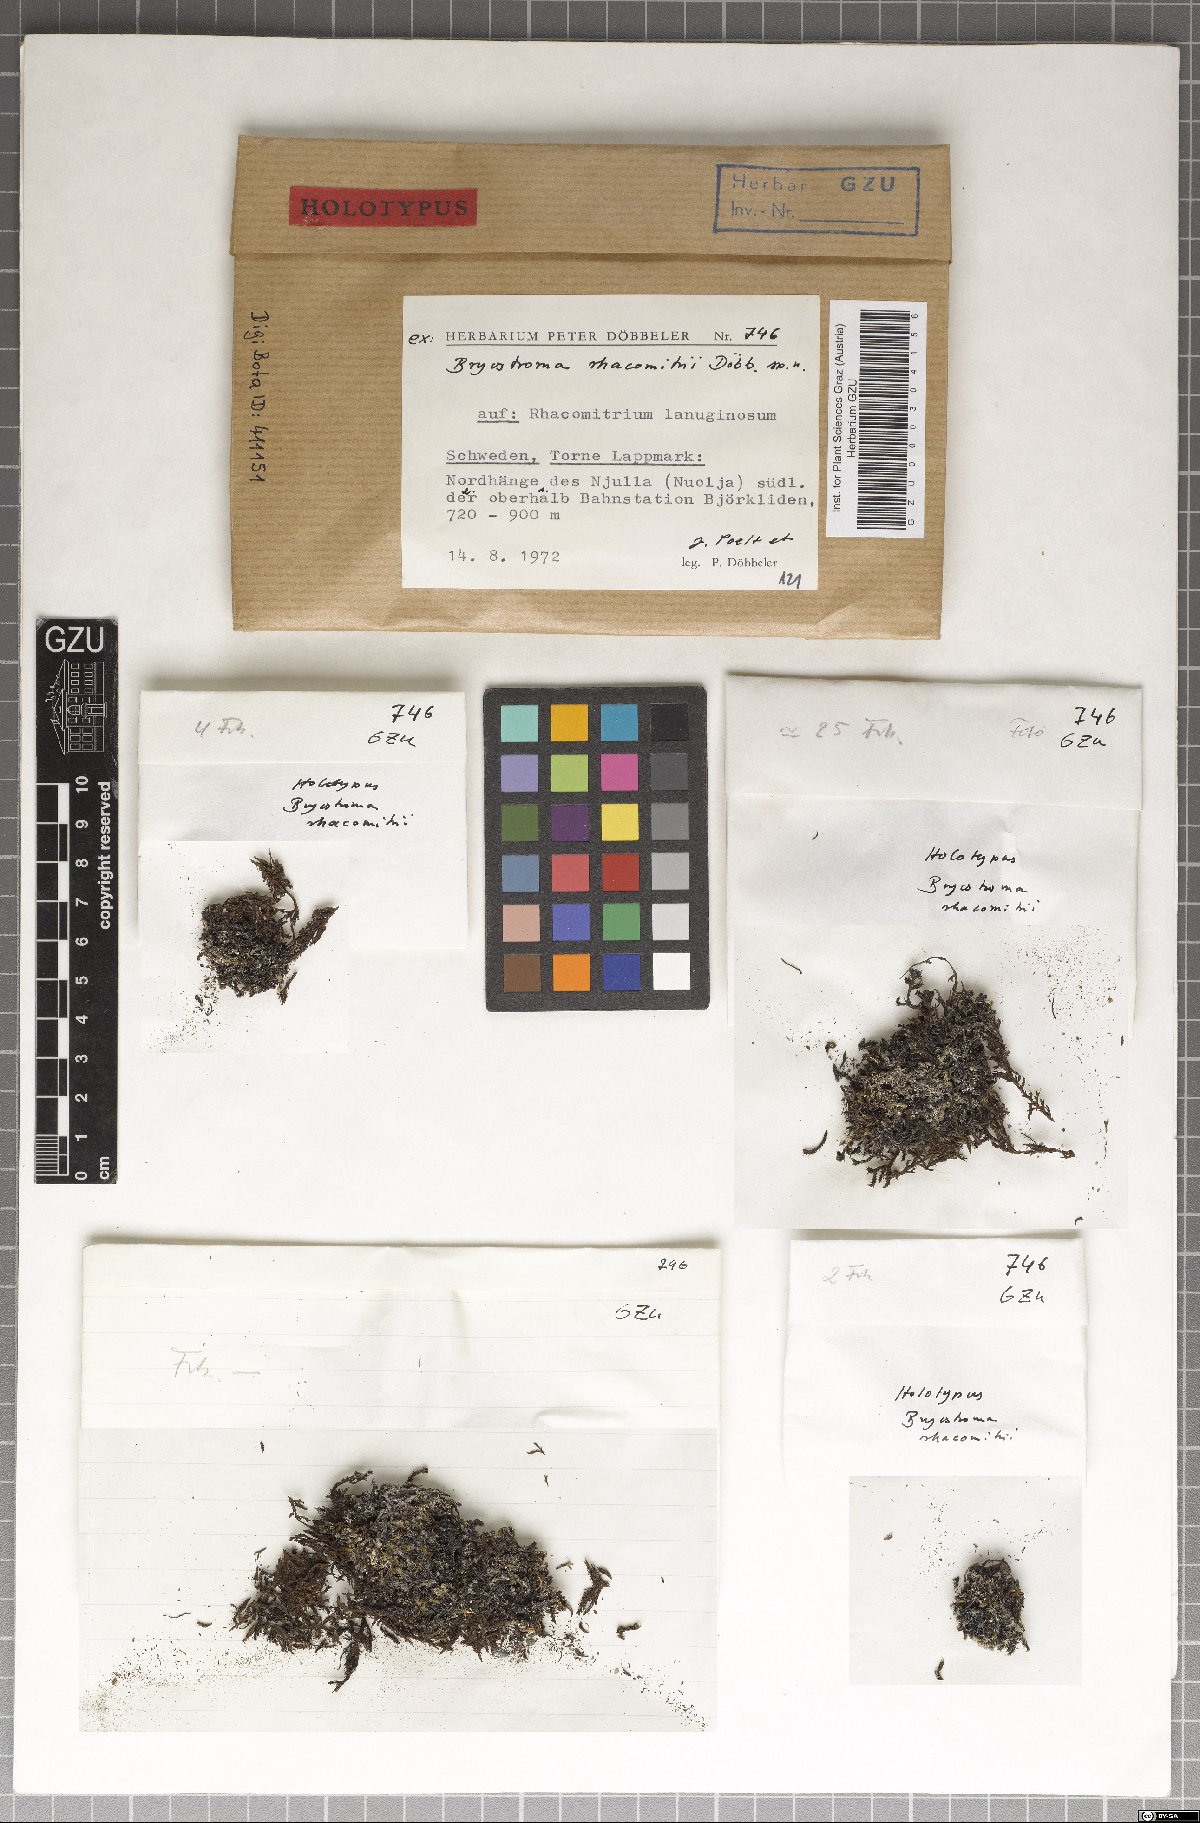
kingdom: Fungi
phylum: Ascomycota
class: Dothideomycetes
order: Dothideales
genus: Bryostroma
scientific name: Bryostroma racomitrii
